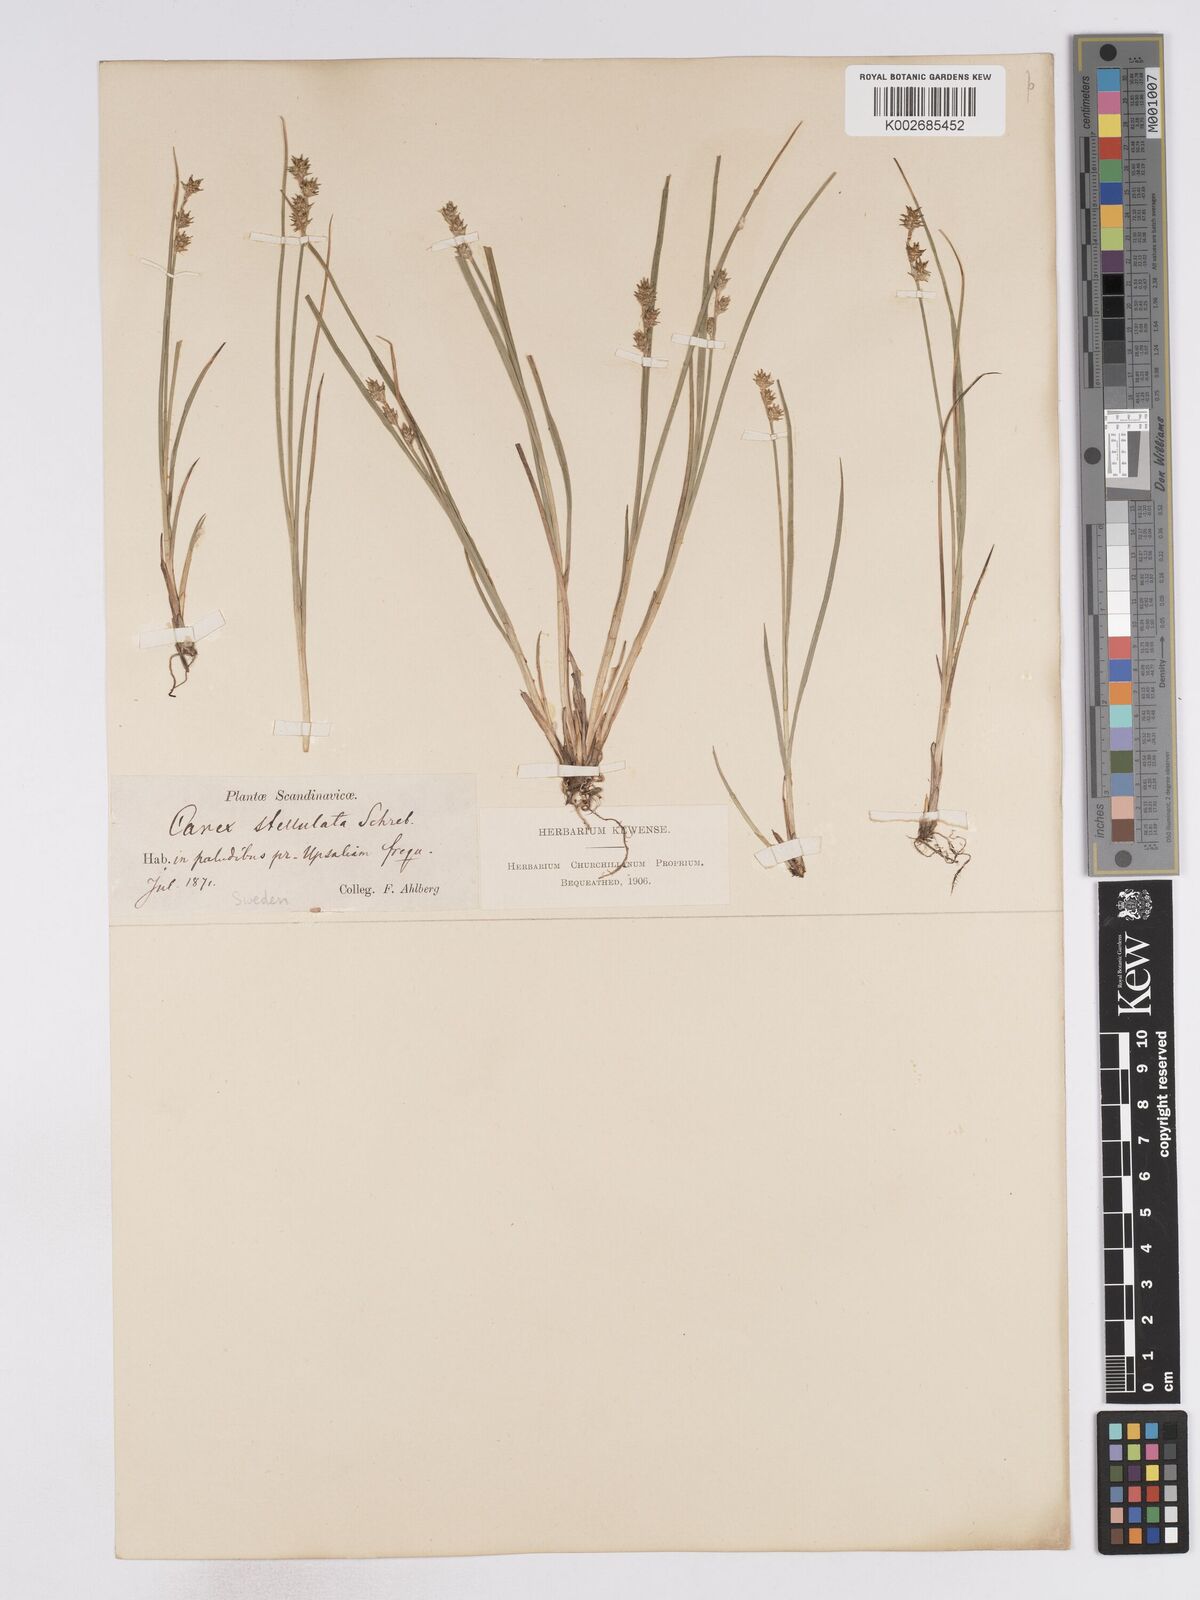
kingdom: Plantae
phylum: Tracheophyta
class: Liliopsida
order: Poales
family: Cyperaceae
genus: Carex
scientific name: Carex echinata
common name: Star sedge
